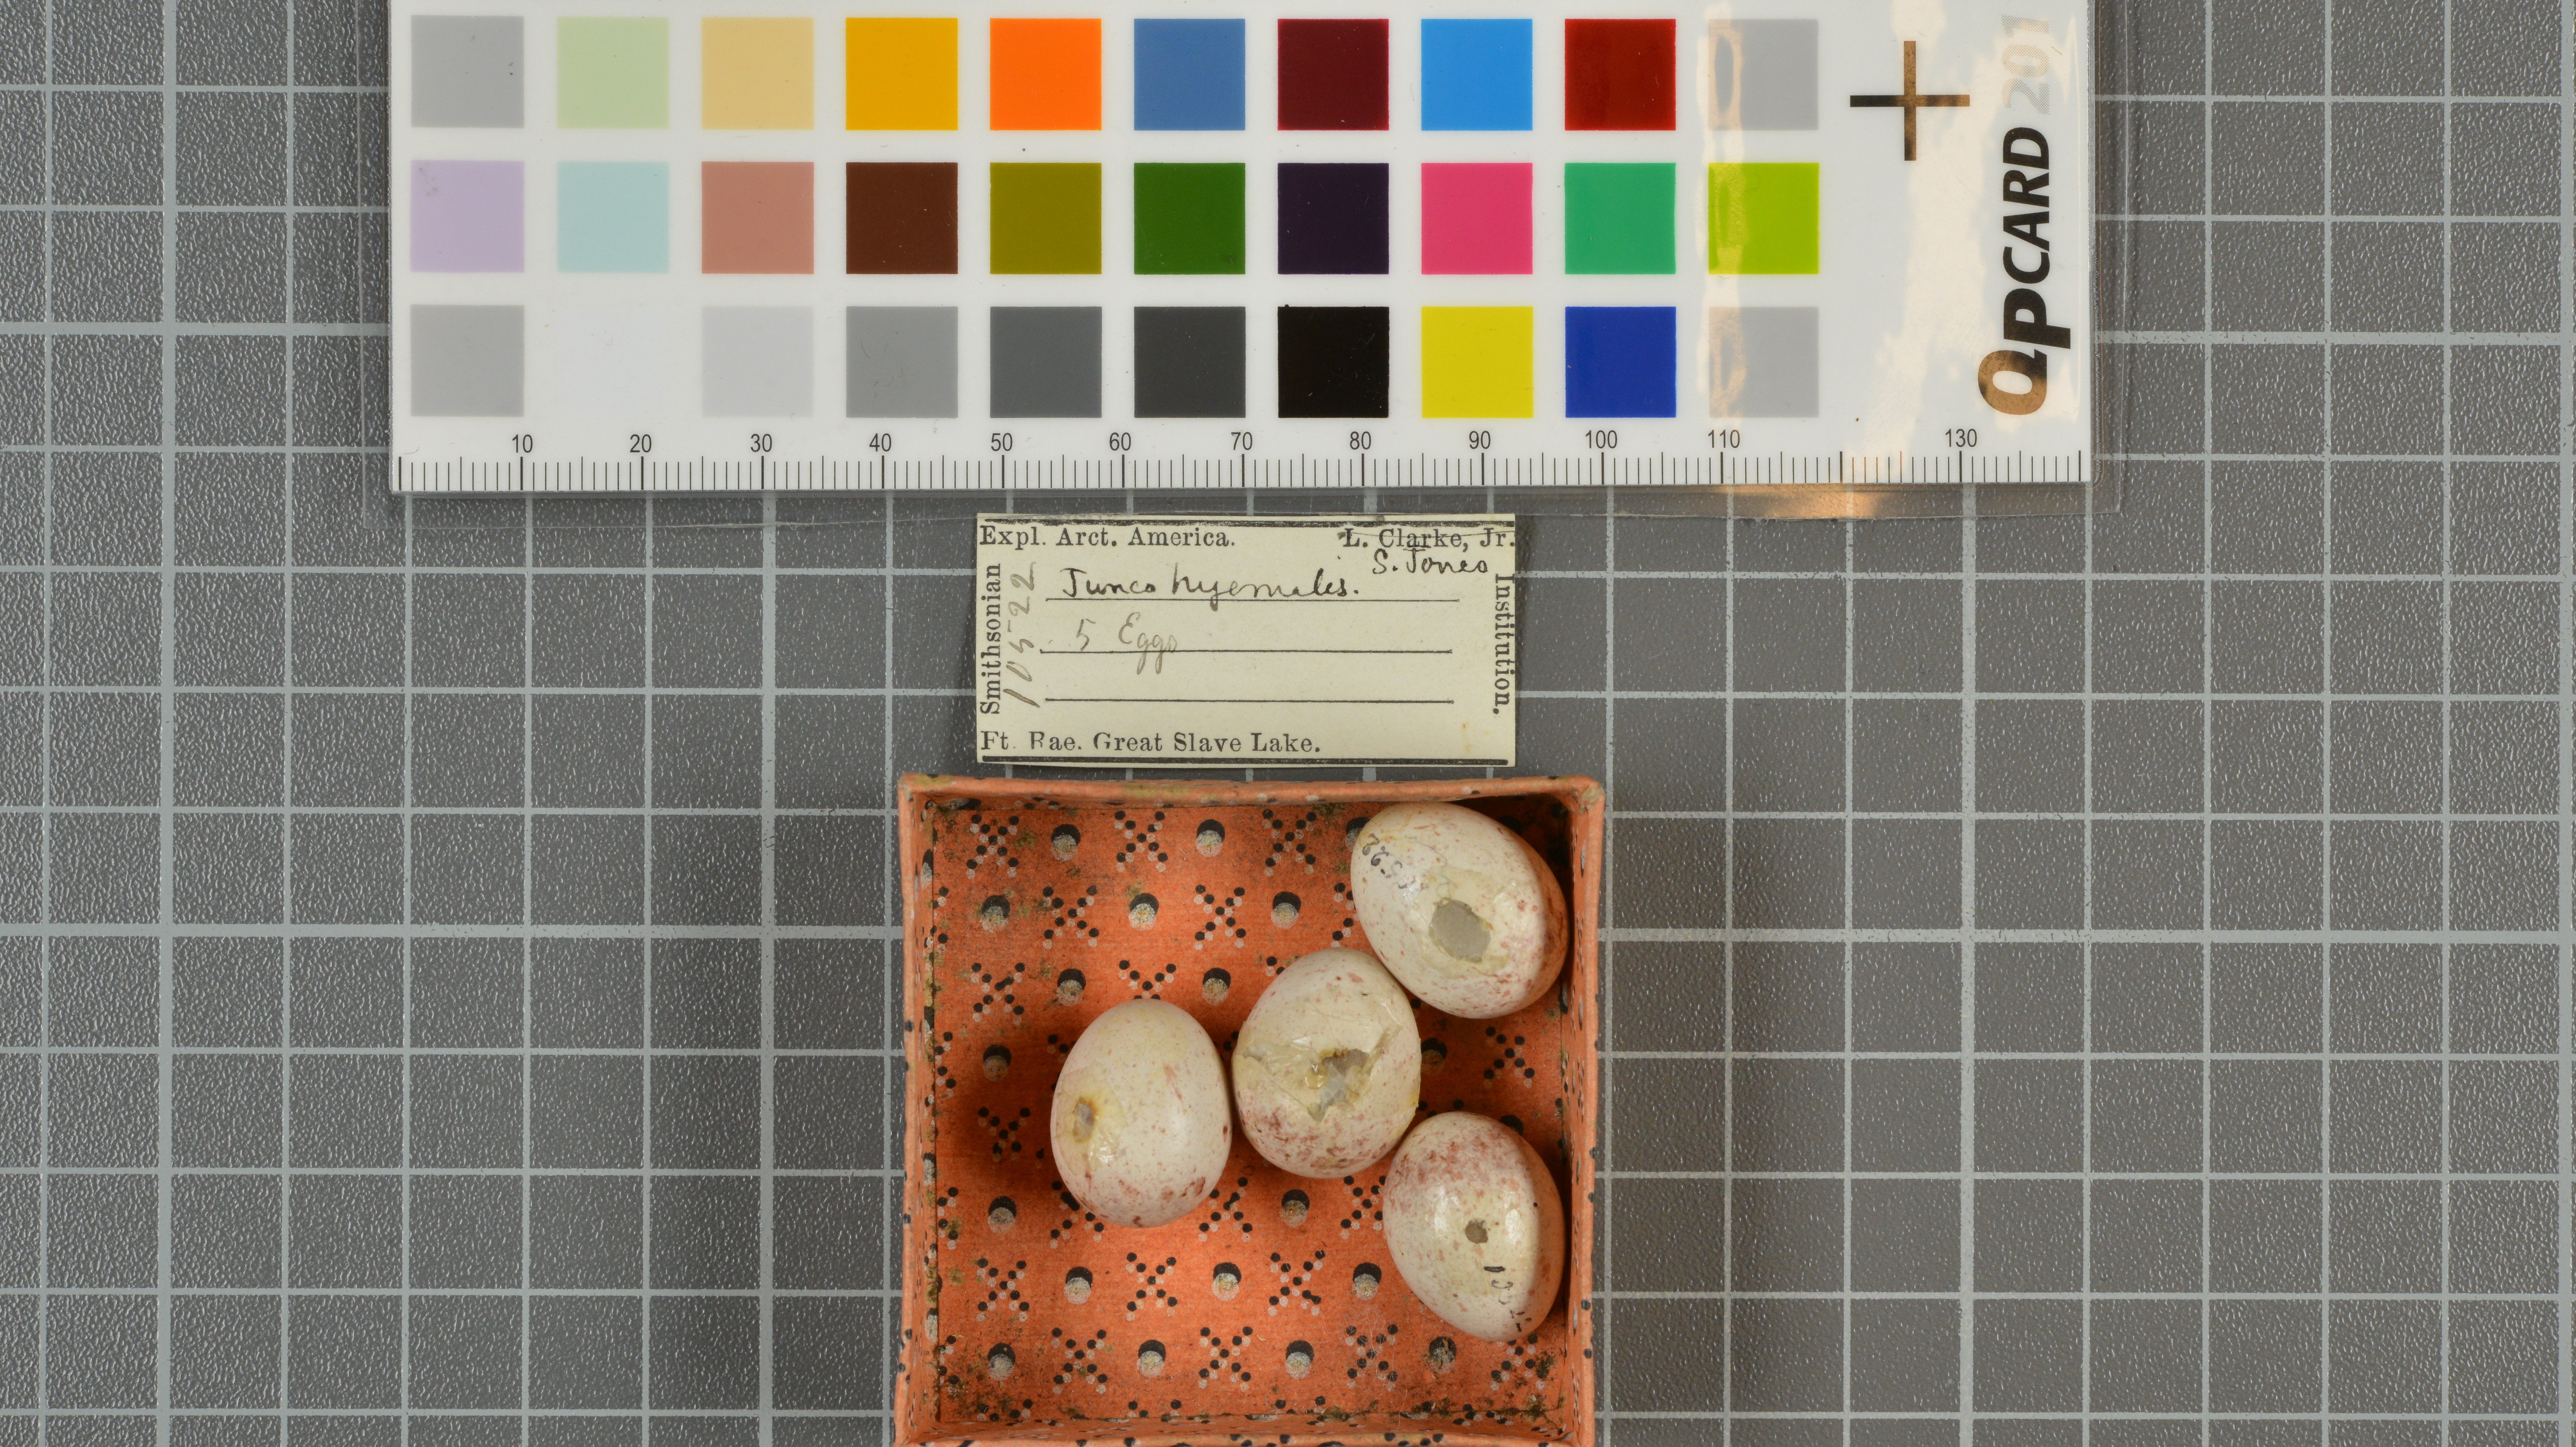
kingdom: Animalia
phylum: Chordata
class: Aves
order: Passeriformes
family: Passerellidae
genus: Junco
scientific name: Junco hyemalis
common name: Dark-eyed junco
